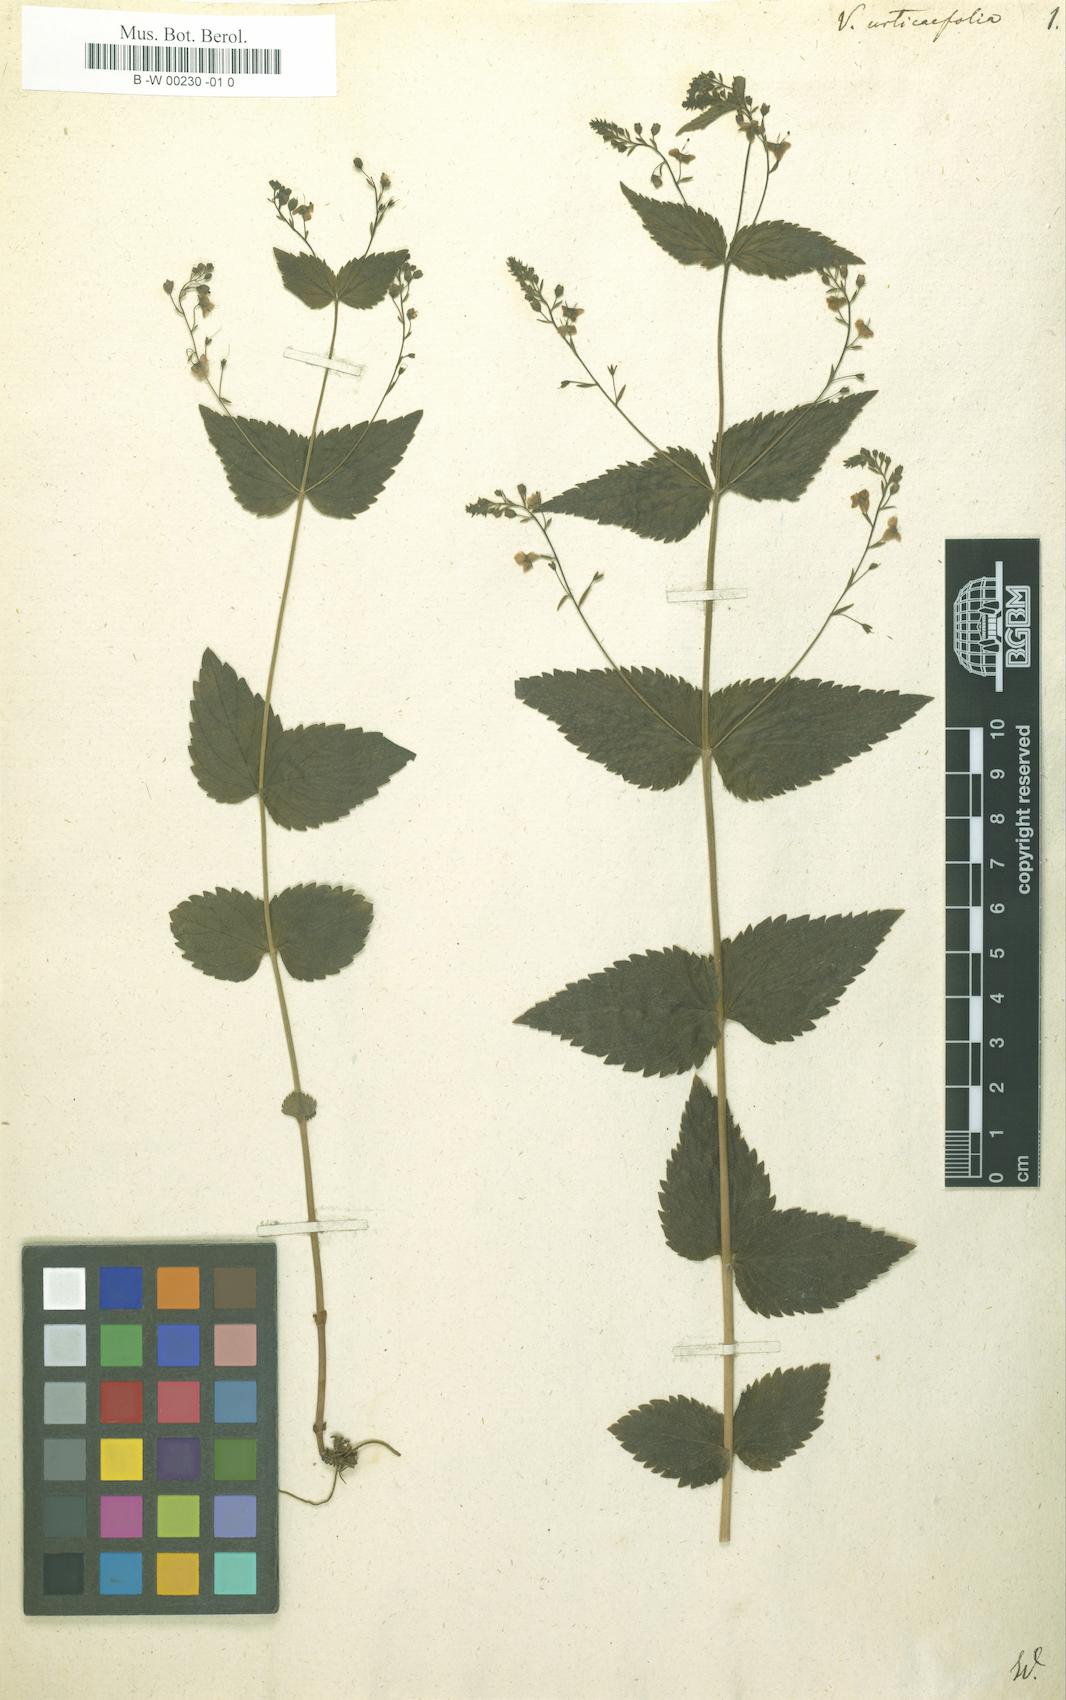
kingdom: Plantae
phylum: Tracheophyta
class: Magnoliopsida
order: Lamiales
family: Plantaginaceae
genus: Veronica
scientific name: Veronica urticifolia
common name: Nettle-leaf speedwell
